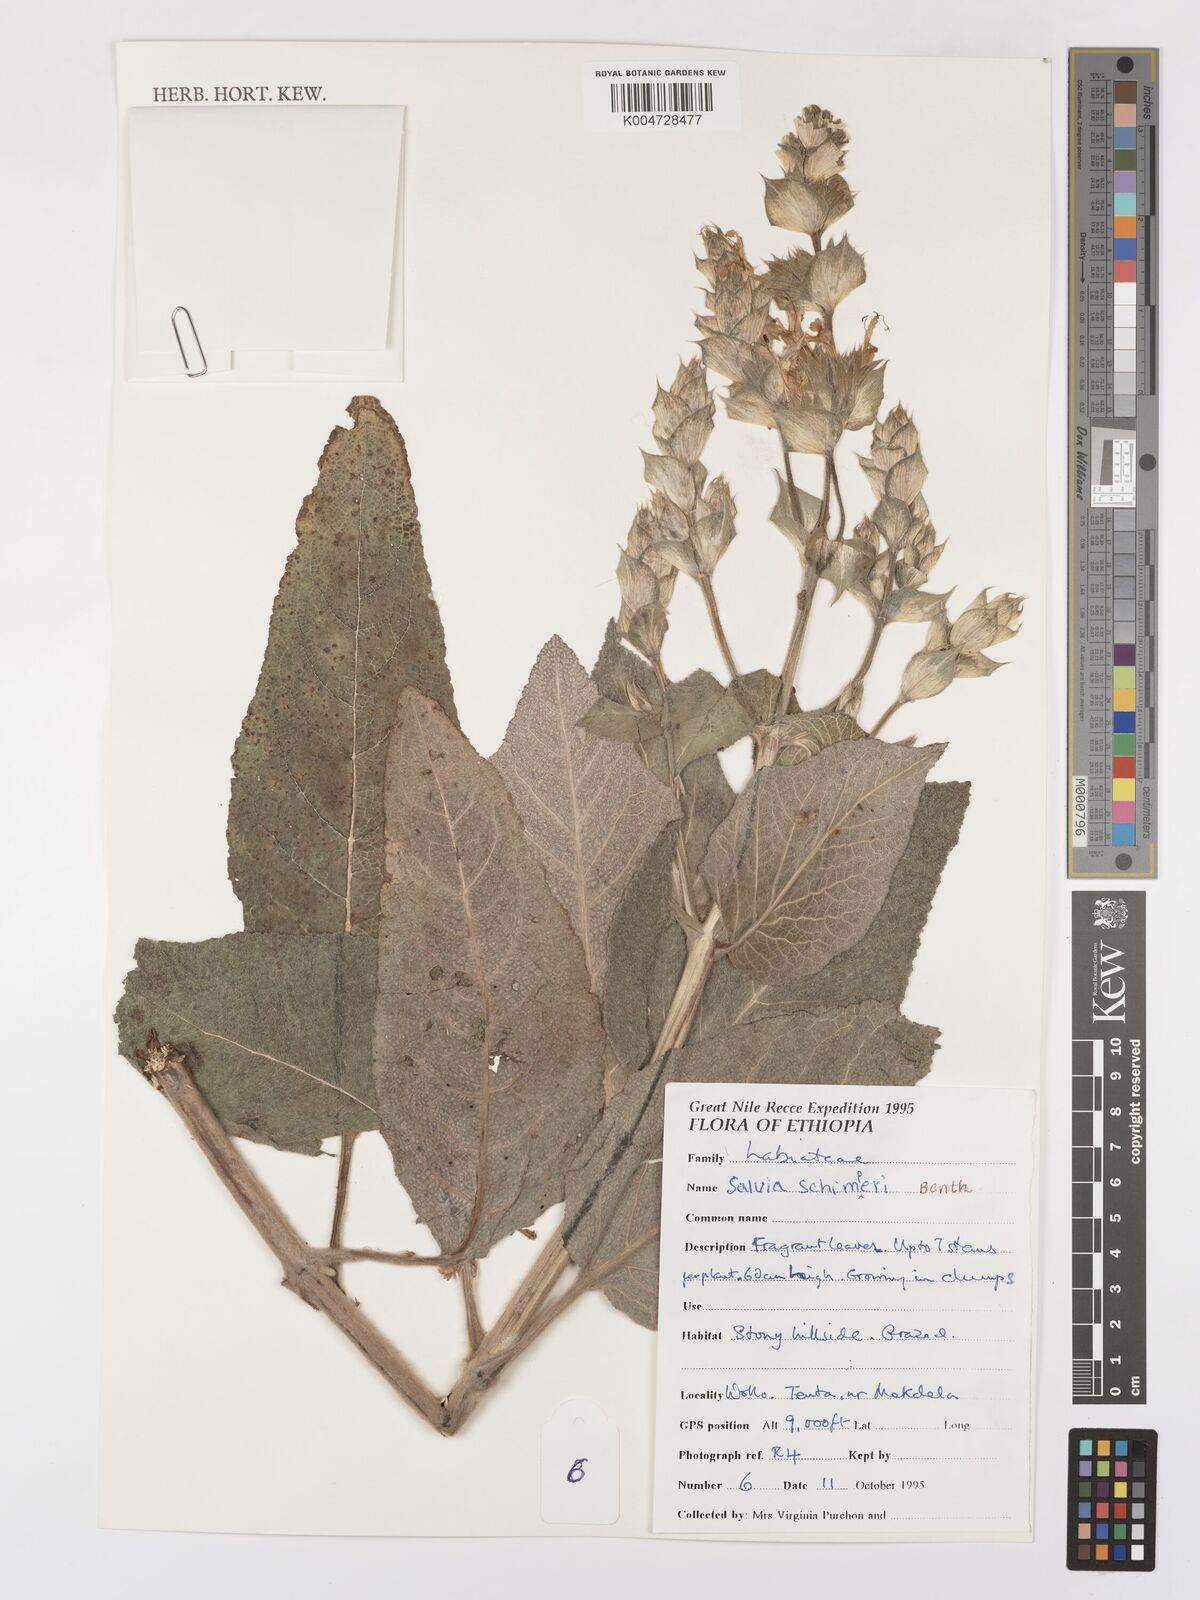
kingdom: Plantae
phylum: Tracheophyta
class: Magnoliopsida
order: Lamiales
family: Lamiaceae
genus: Salvia
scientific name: Salvia schimperi
